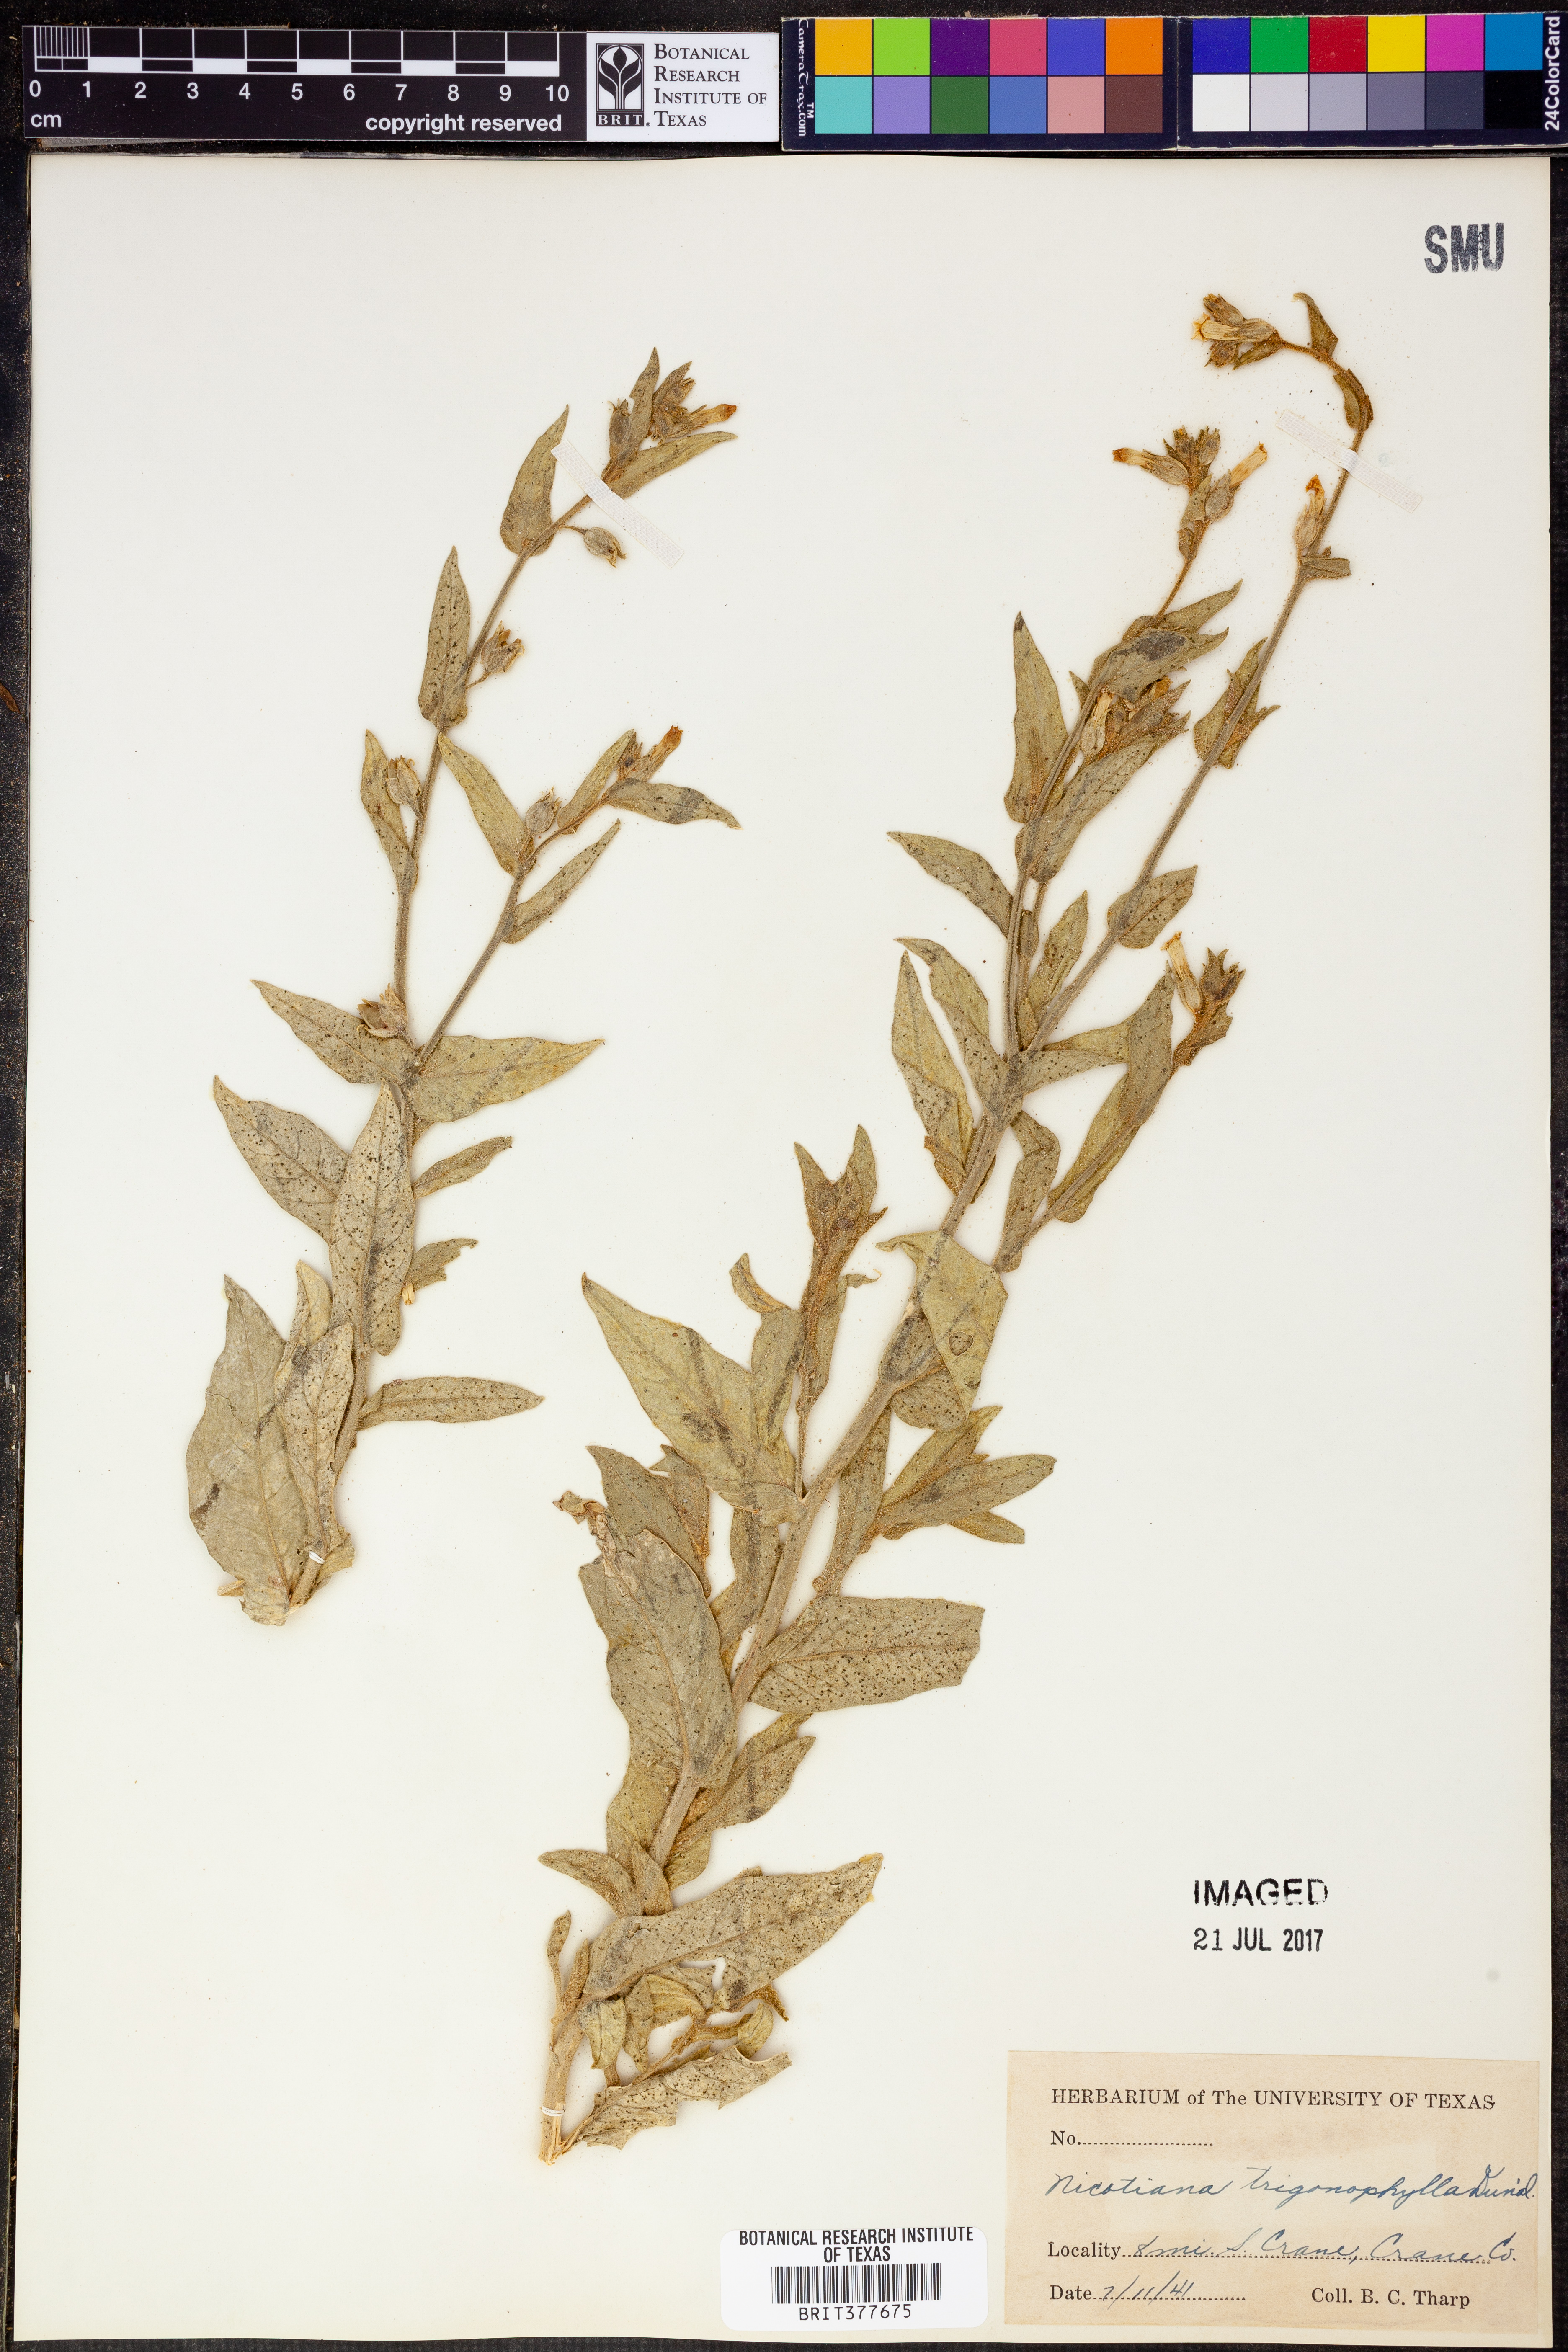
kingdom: Plantae
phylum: Tracheophyta
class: Magnoliopsida
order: Solanales
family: Solanaceae
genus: Nicotiana
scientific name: Nicotiana obtusifolia
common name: Desert tobacco
